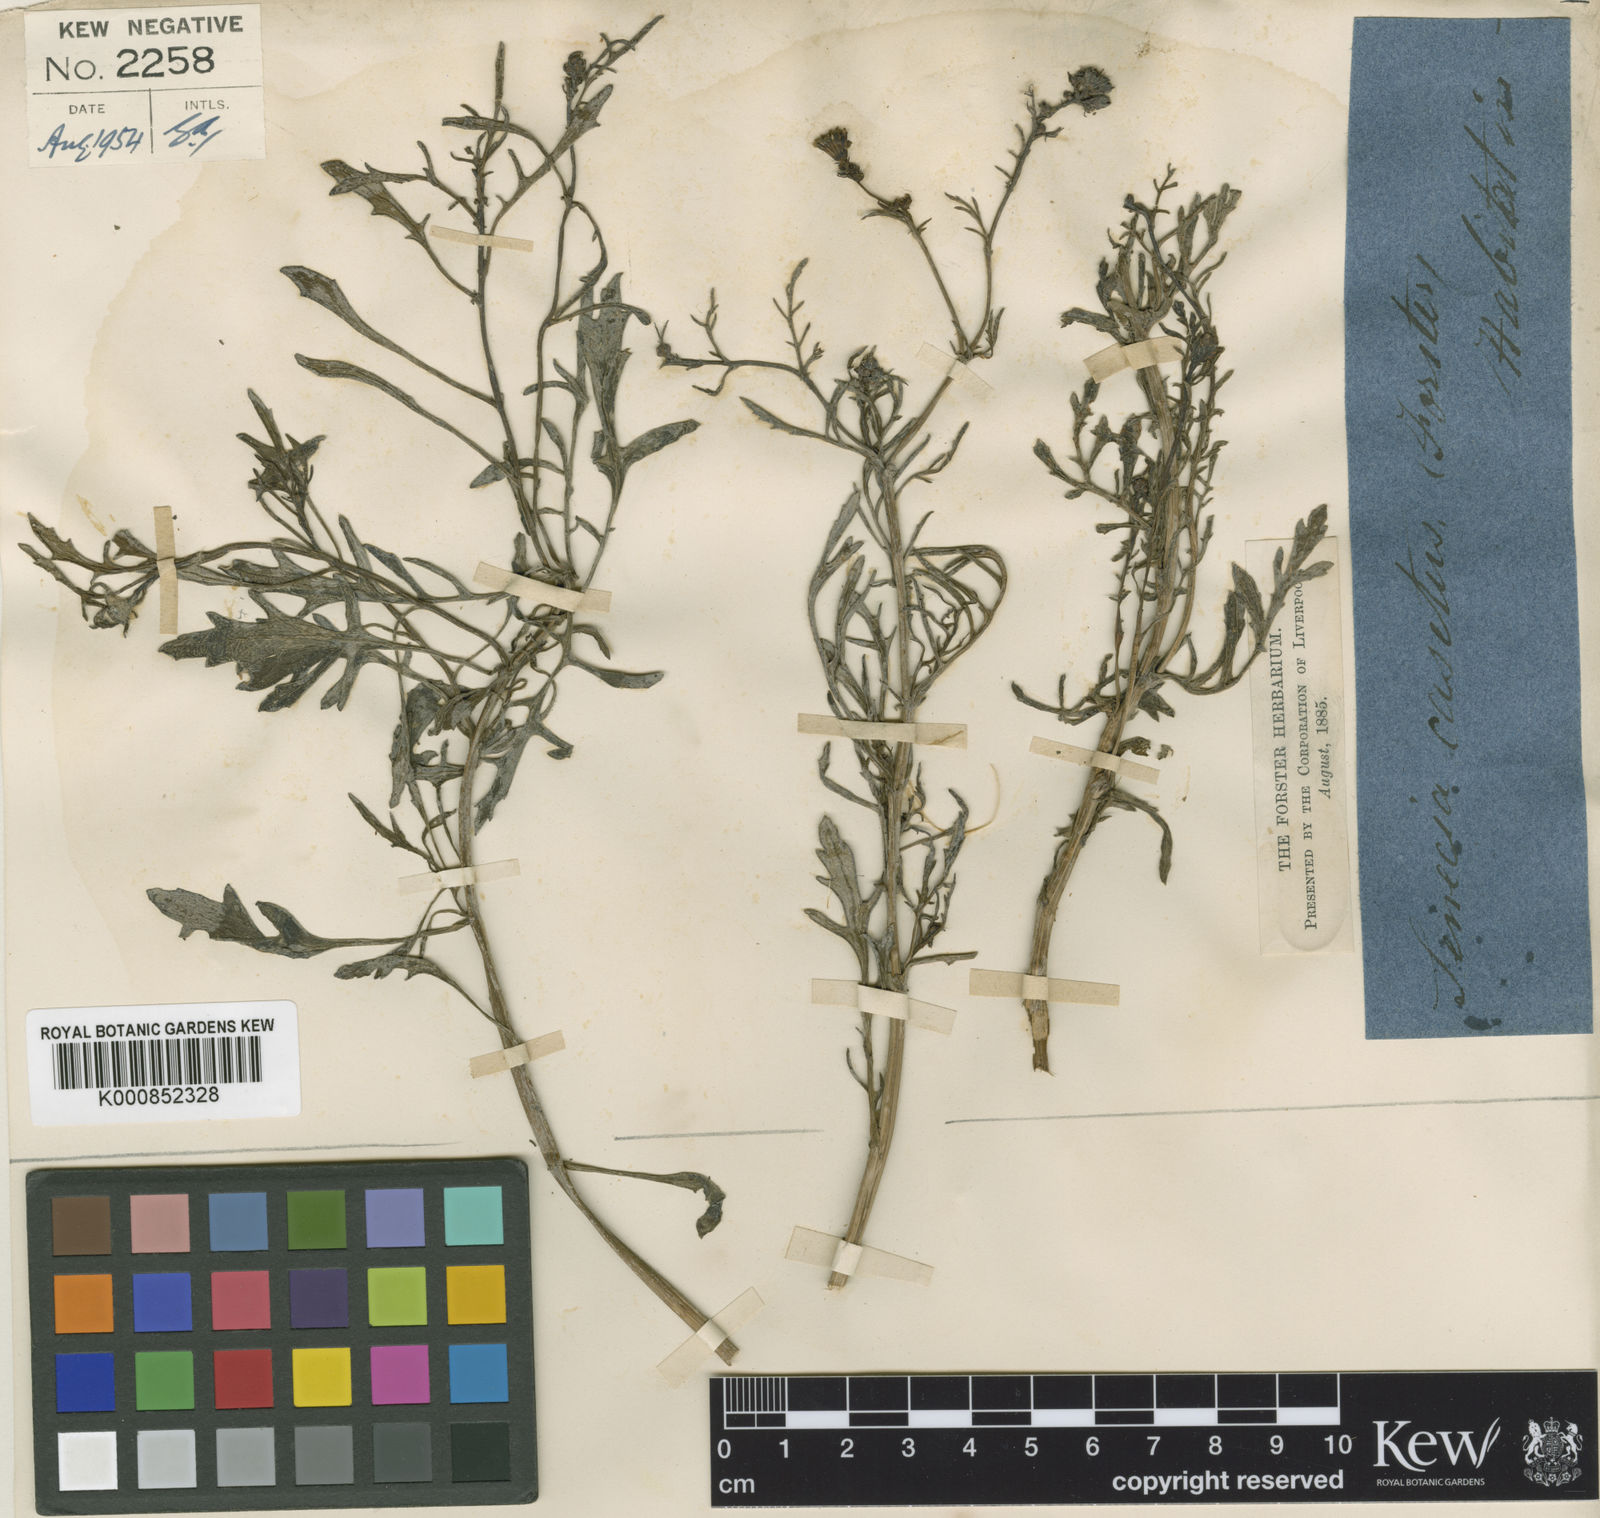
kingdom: Plantae
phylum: Tracheophyta
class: Magnoliopsida
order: Asterales
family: Asteraceae
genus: Senecio
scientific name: Senecio
